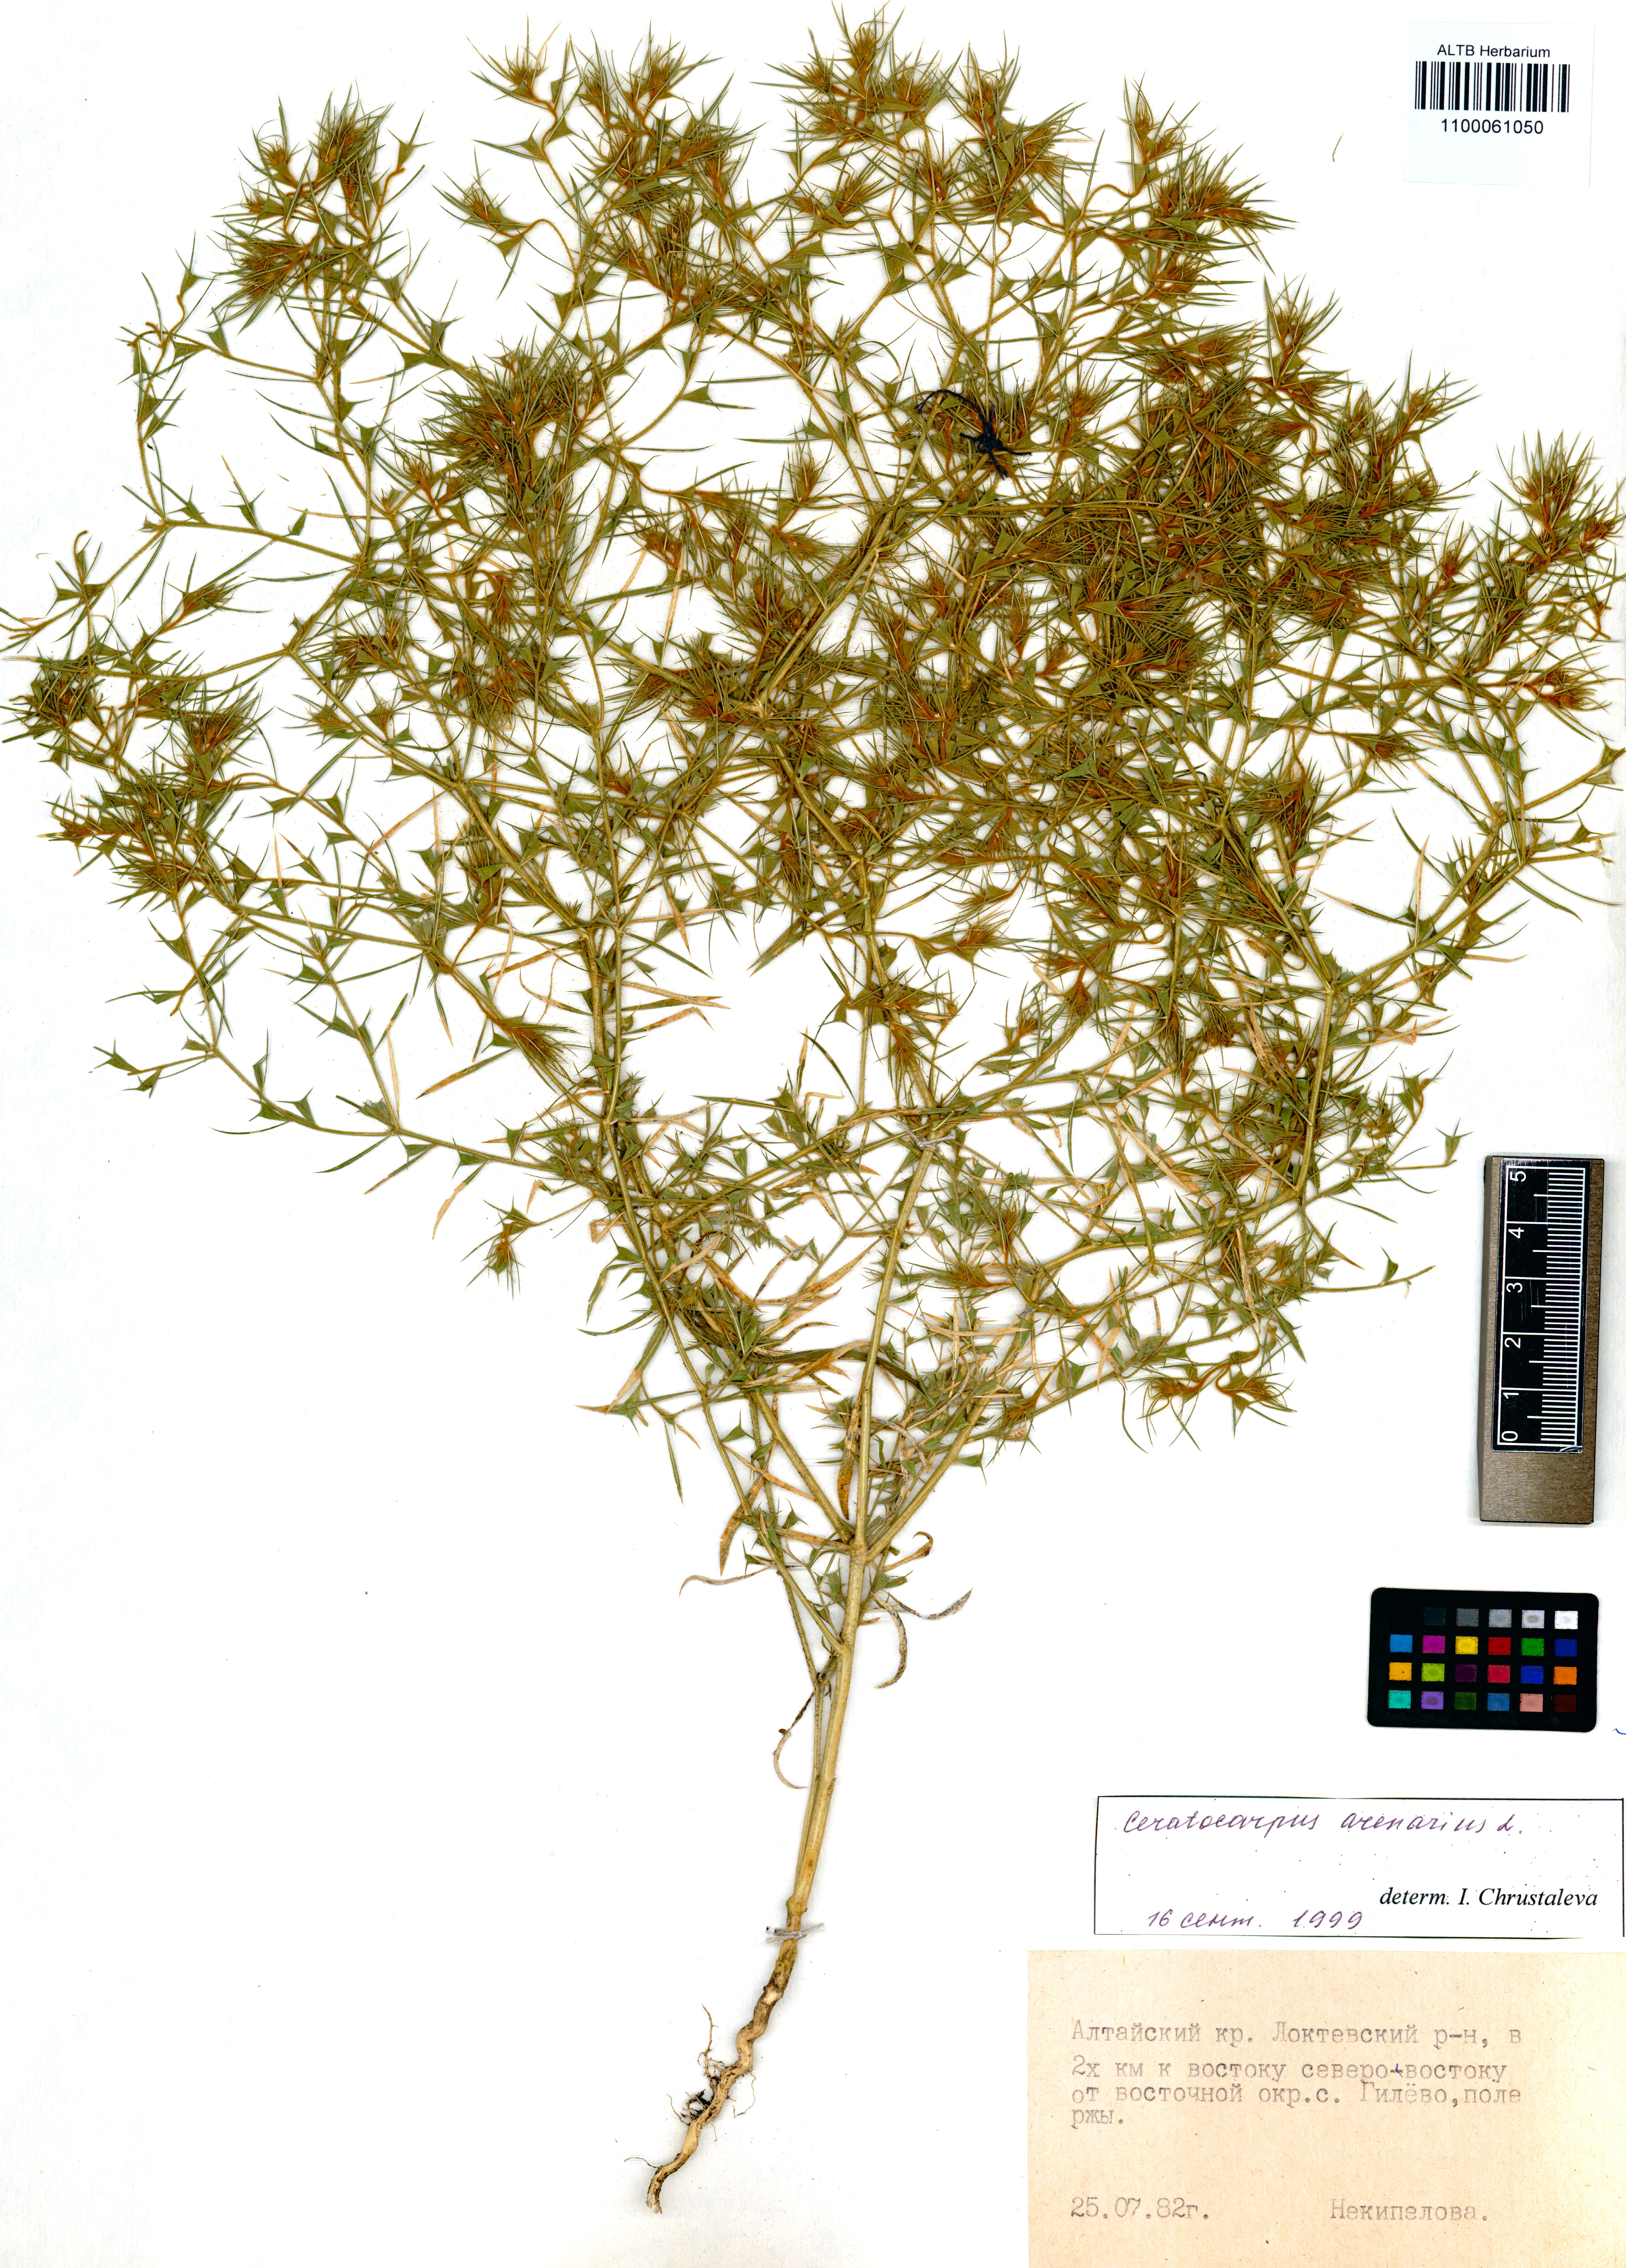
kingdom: Plantae
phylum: Tracheophyta
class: Magnoliopsida
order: Caryophyllales
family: Amaranthaceae
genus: Ceratocarpus
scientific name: Ceratocarpus arenarius
